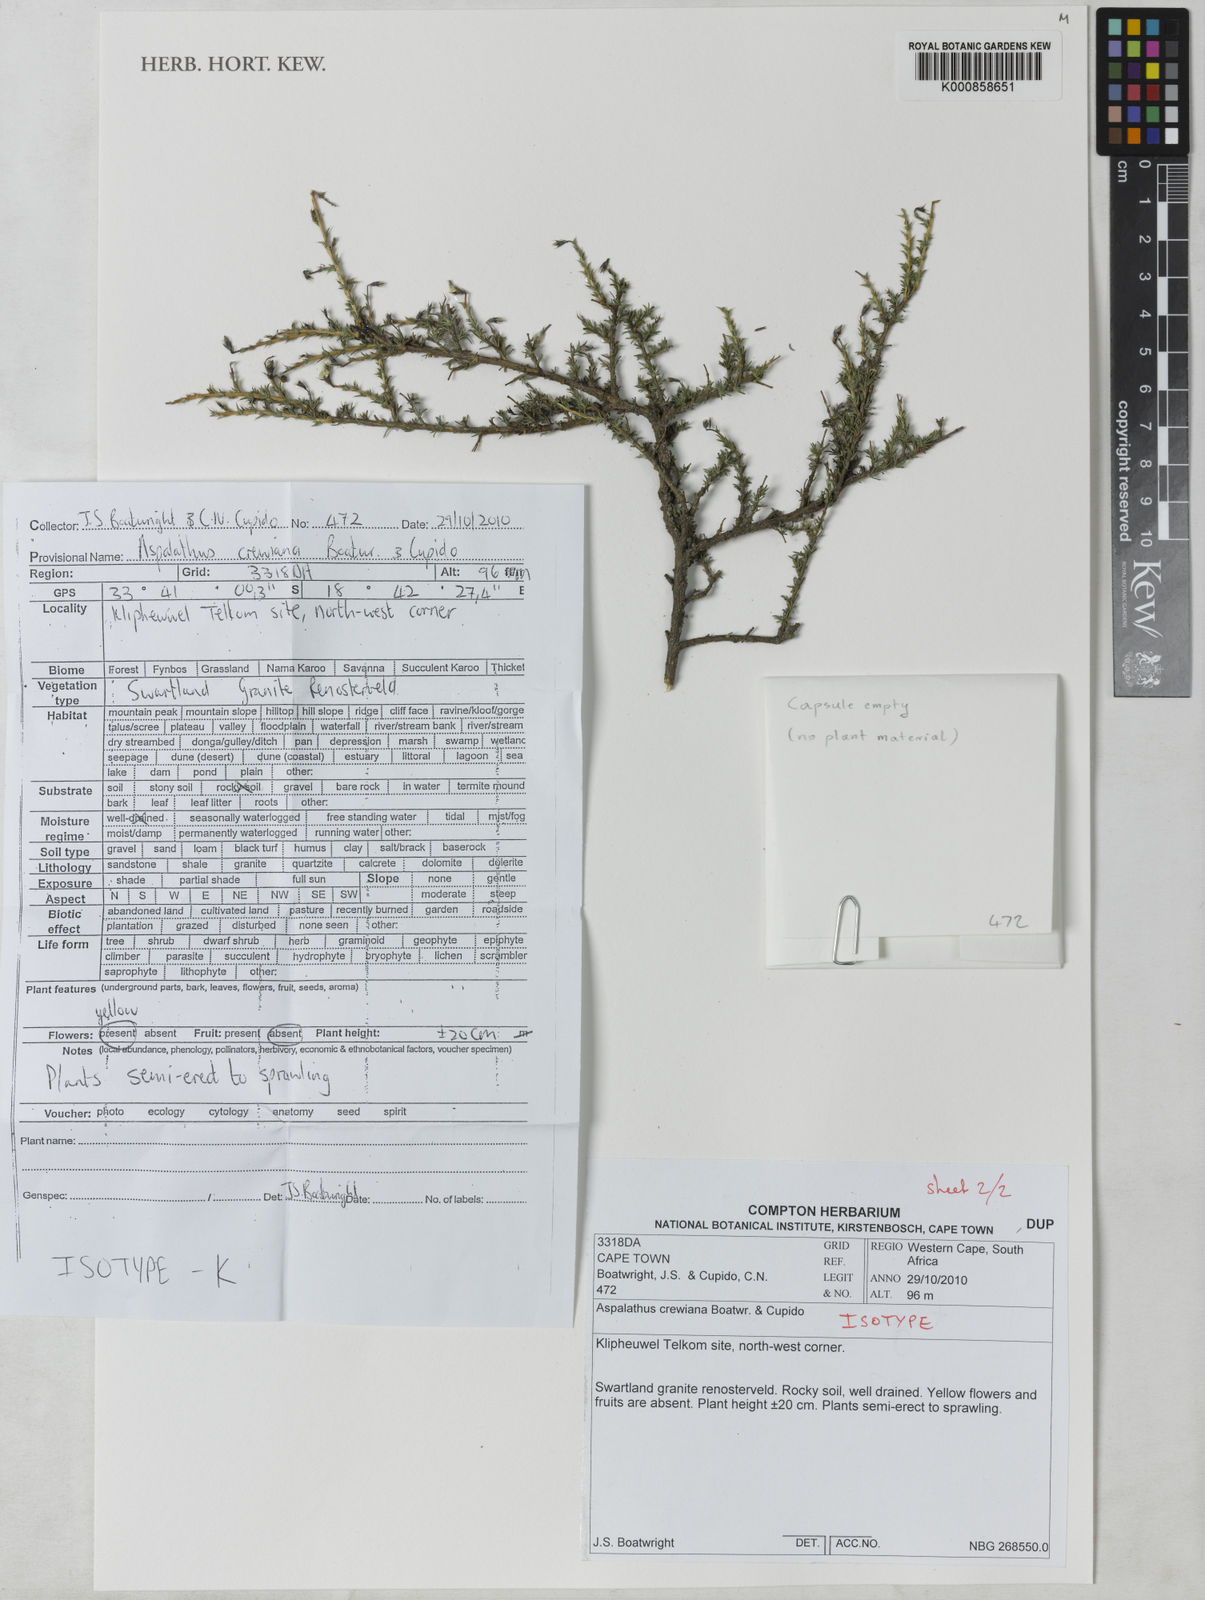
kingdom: Plantae
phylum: Tracheophyta
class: Magnoliopsida
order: Fabales
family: Fabaceae
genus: Aspalathus
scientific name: Aspalathus crewiana
